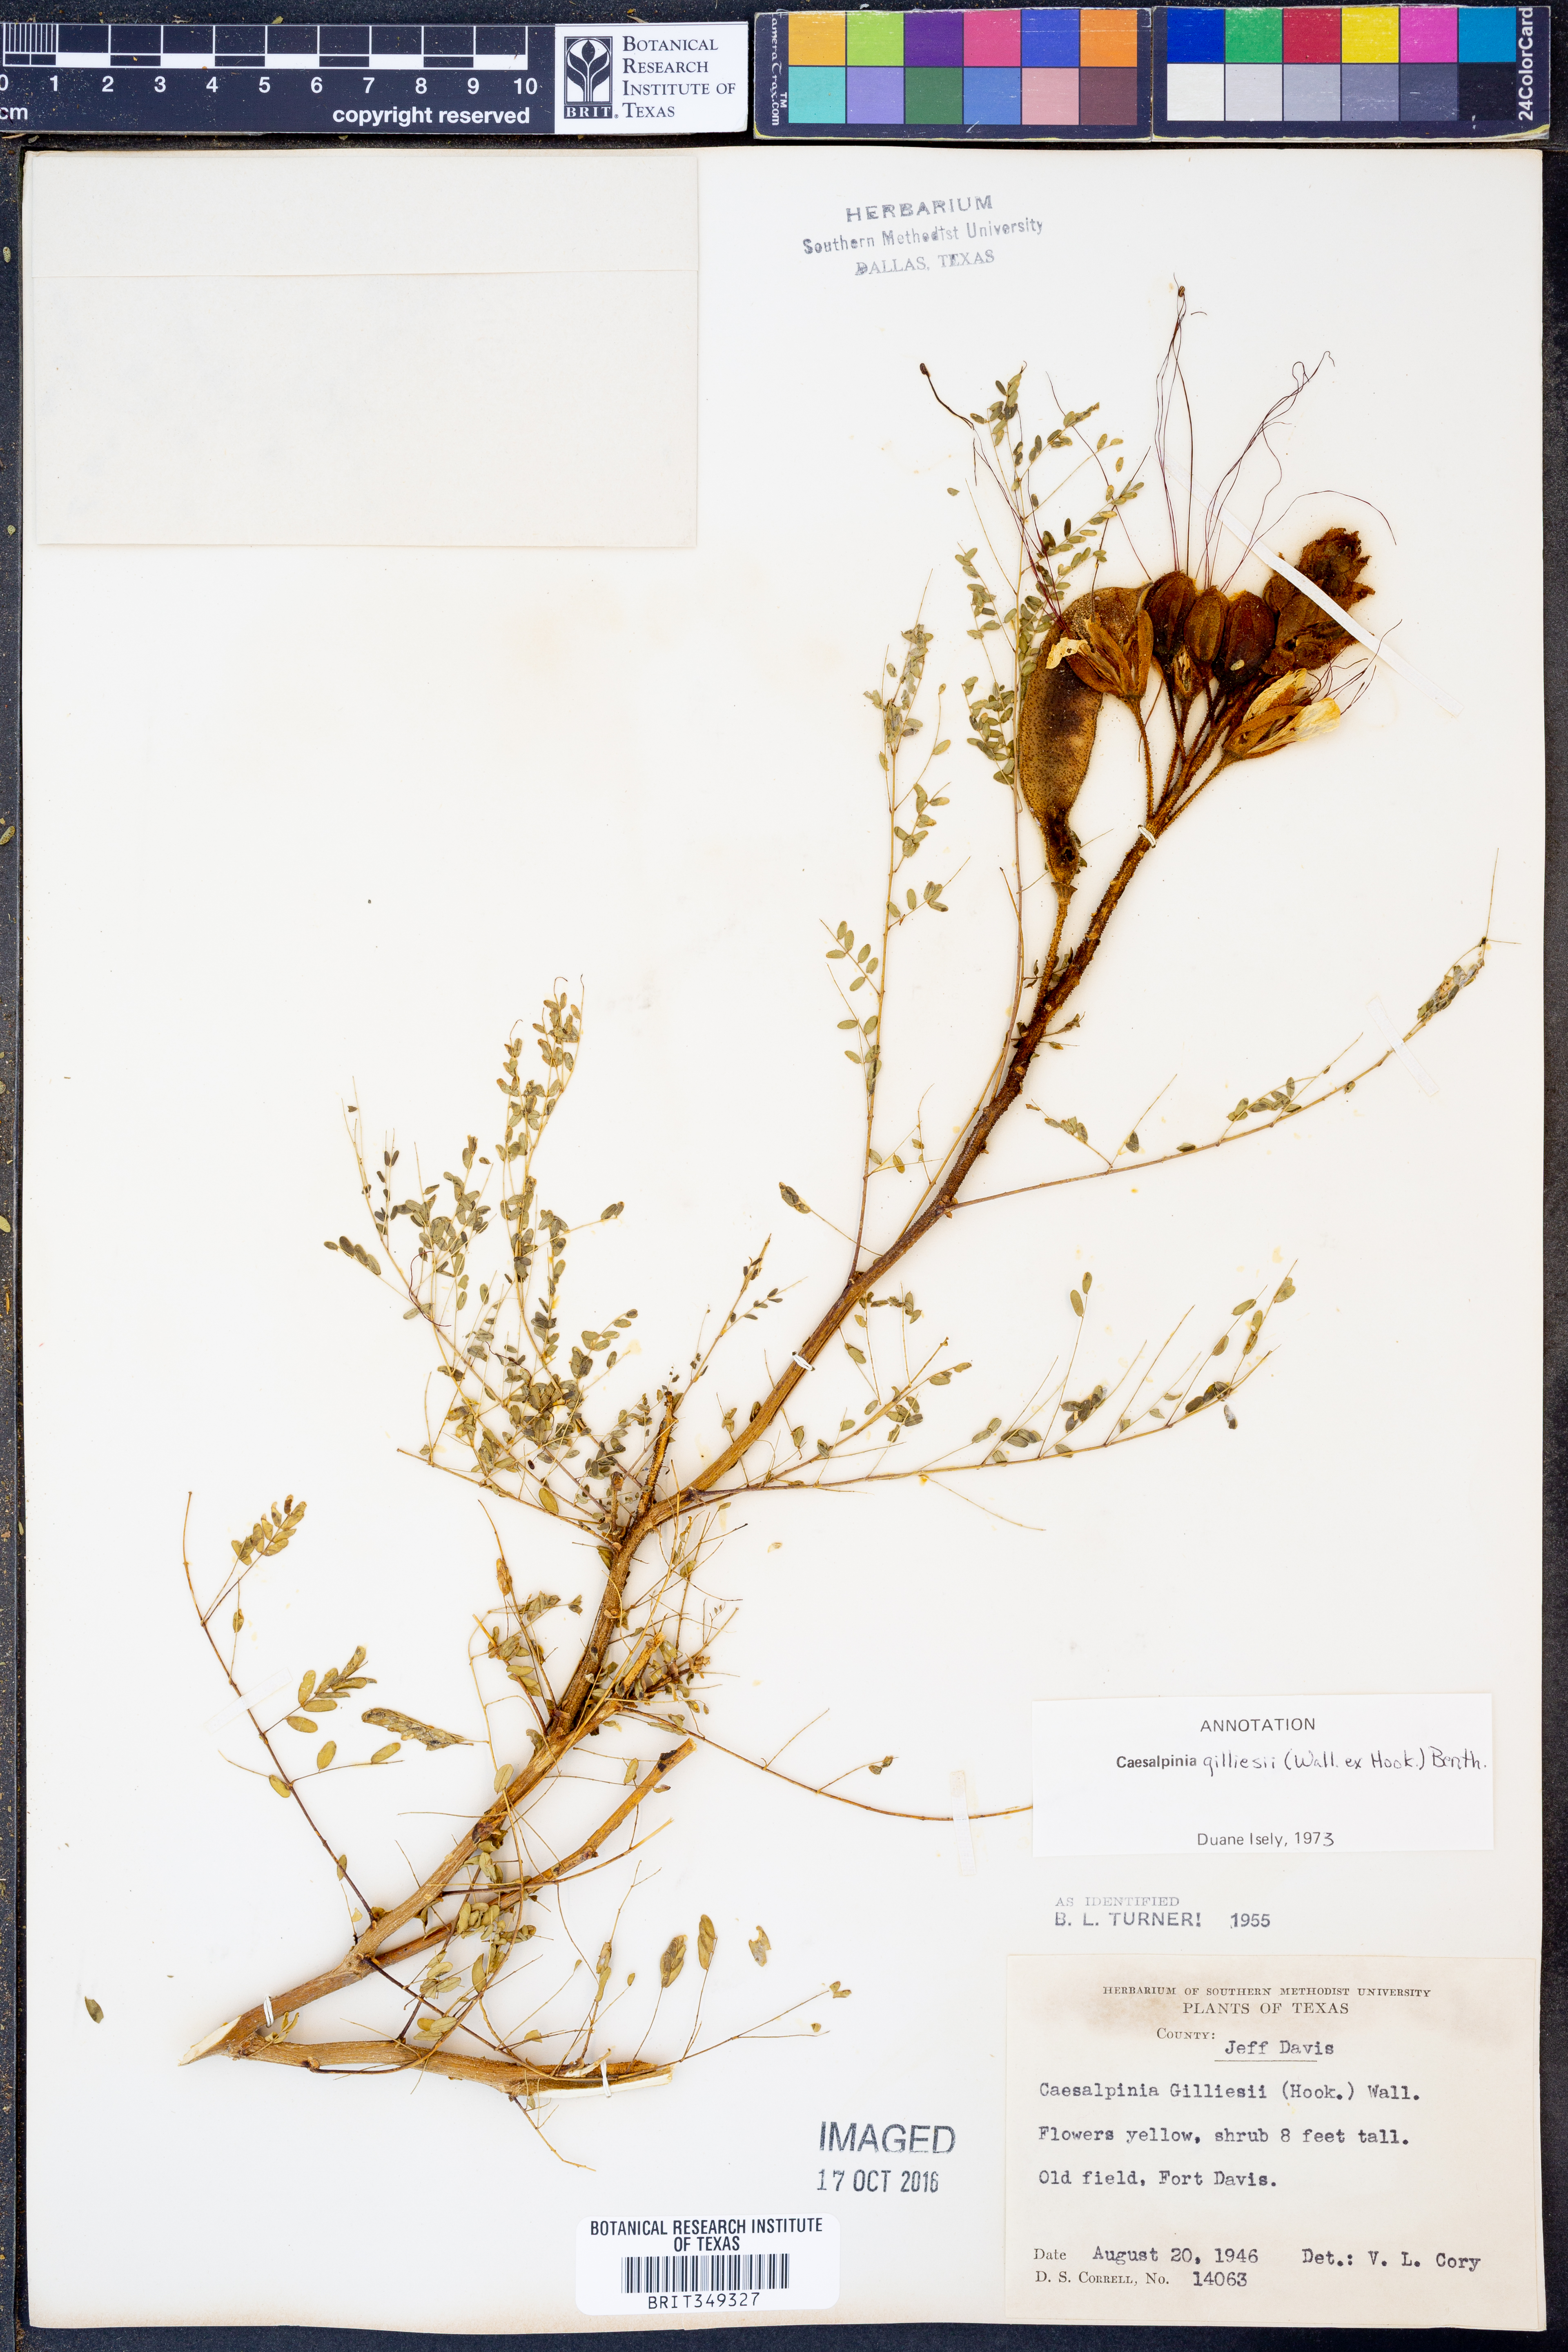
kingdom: Plantae
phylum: Tracheophyta
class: Magnoliopsida
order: Fabales
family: Fabaceae
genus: Erythrostemon
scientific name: Erythrostemon gilliesii
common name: Bird-of-paradise shrub
